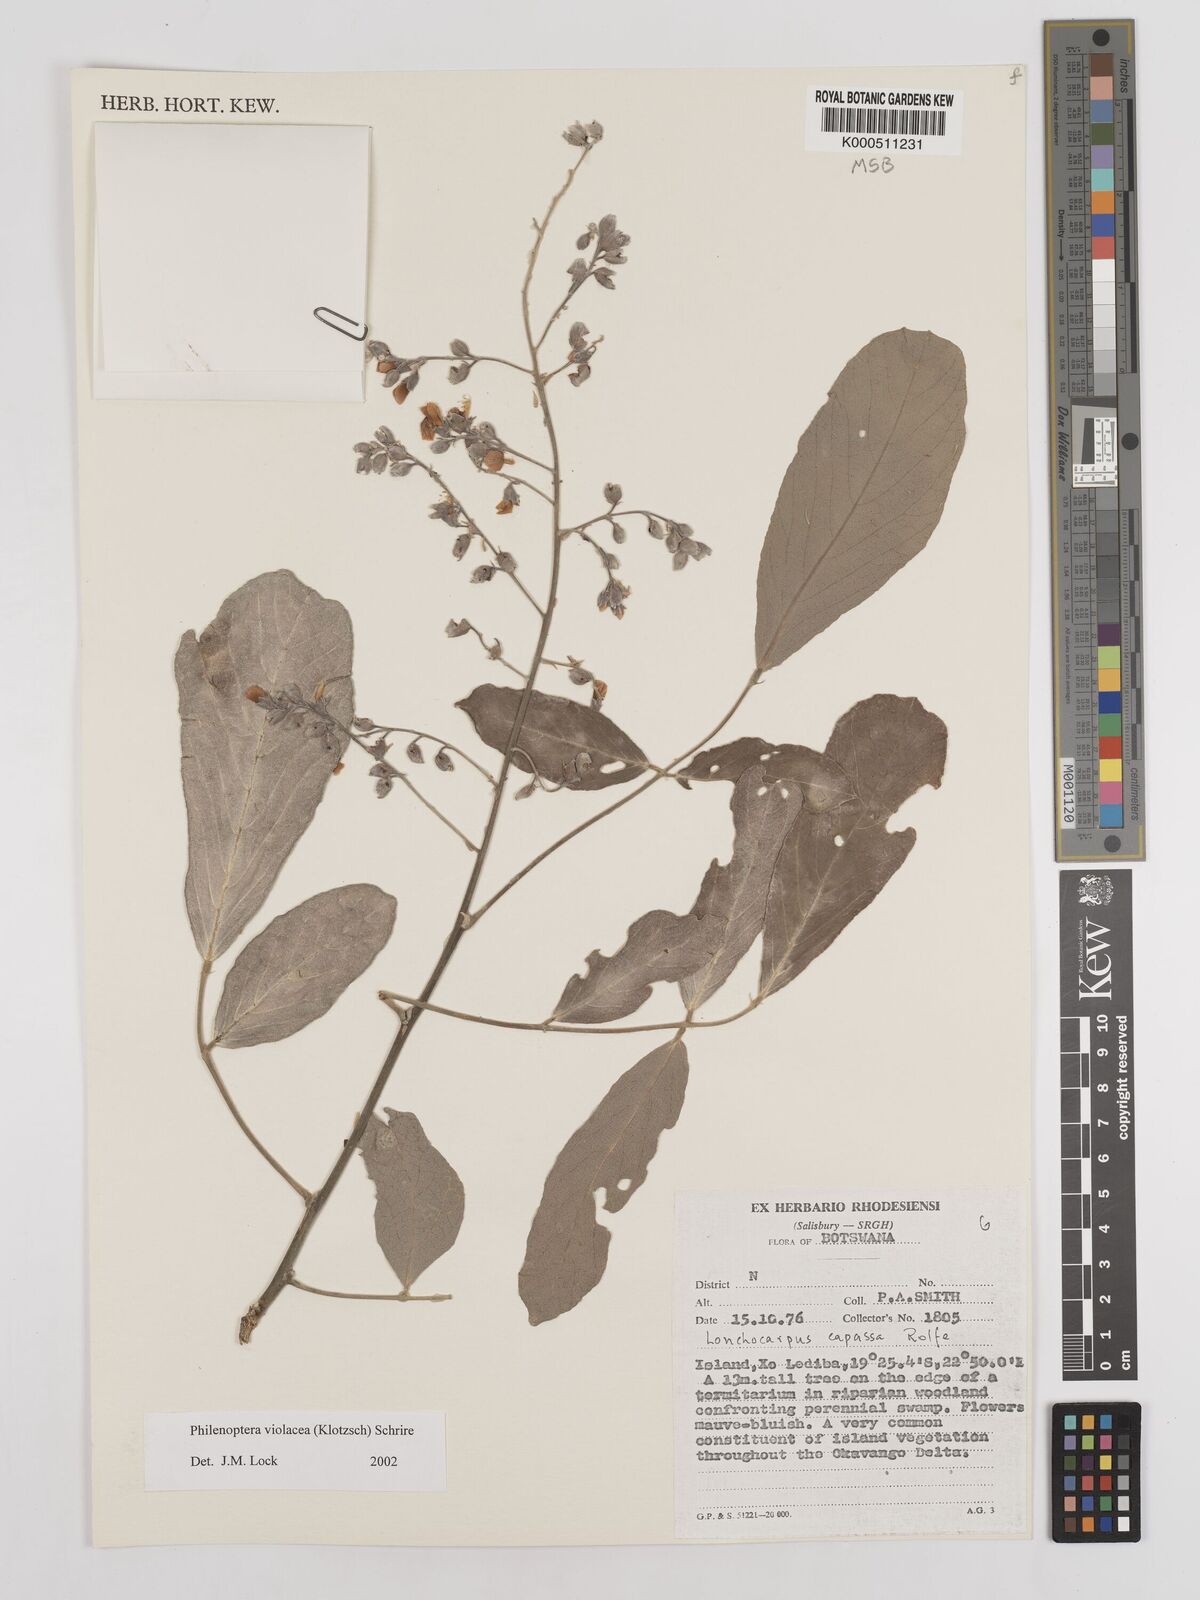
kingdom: Plantae
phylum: Tracheophyta
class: Magnoliopsida
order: Fabales
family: Fabaceae
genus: Philenoptera
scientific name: Philenoptera violacea
